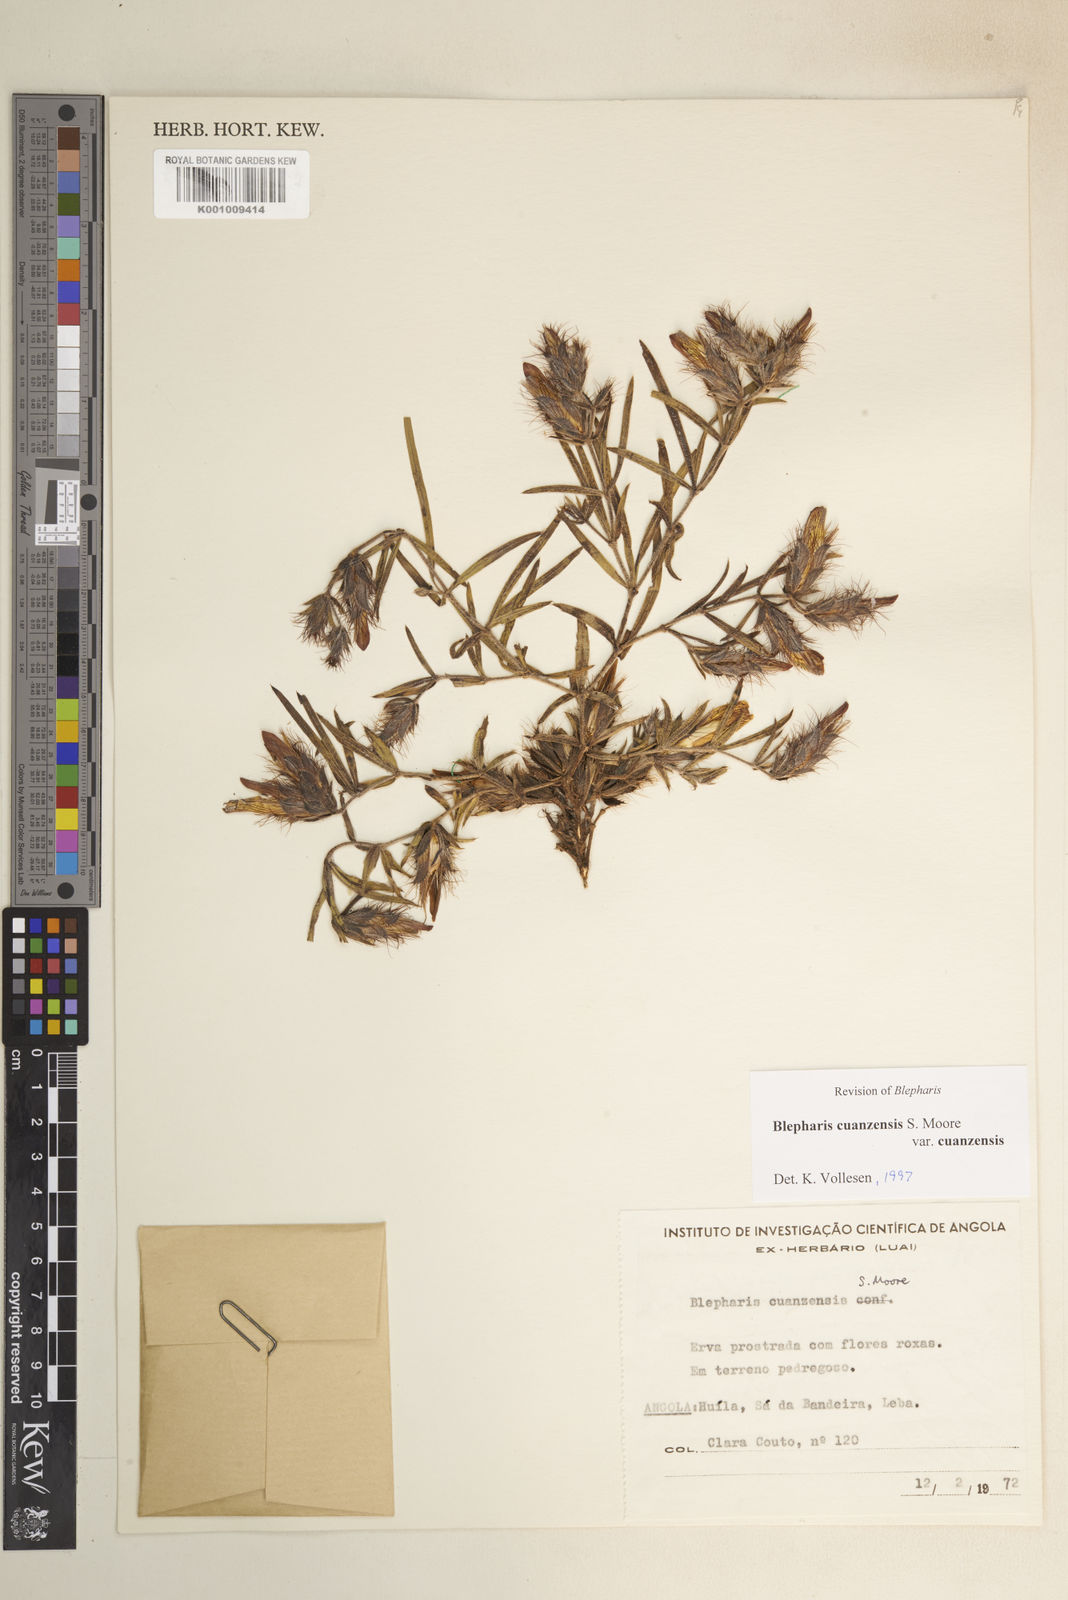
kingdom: Plantae
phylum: Tracheophyta
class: Magnoliopsida
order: Lamiales
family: Acanthaceae
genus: Blepharis
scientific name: Blepharis cuanzensis
